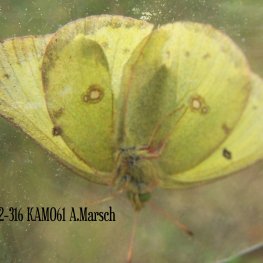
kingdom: Animalia
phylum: Arthropoda
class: Insecta
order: Lepidoptera
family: Pieridae
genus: Colias
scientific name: Colias philodice
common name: Clouded Sulphur
